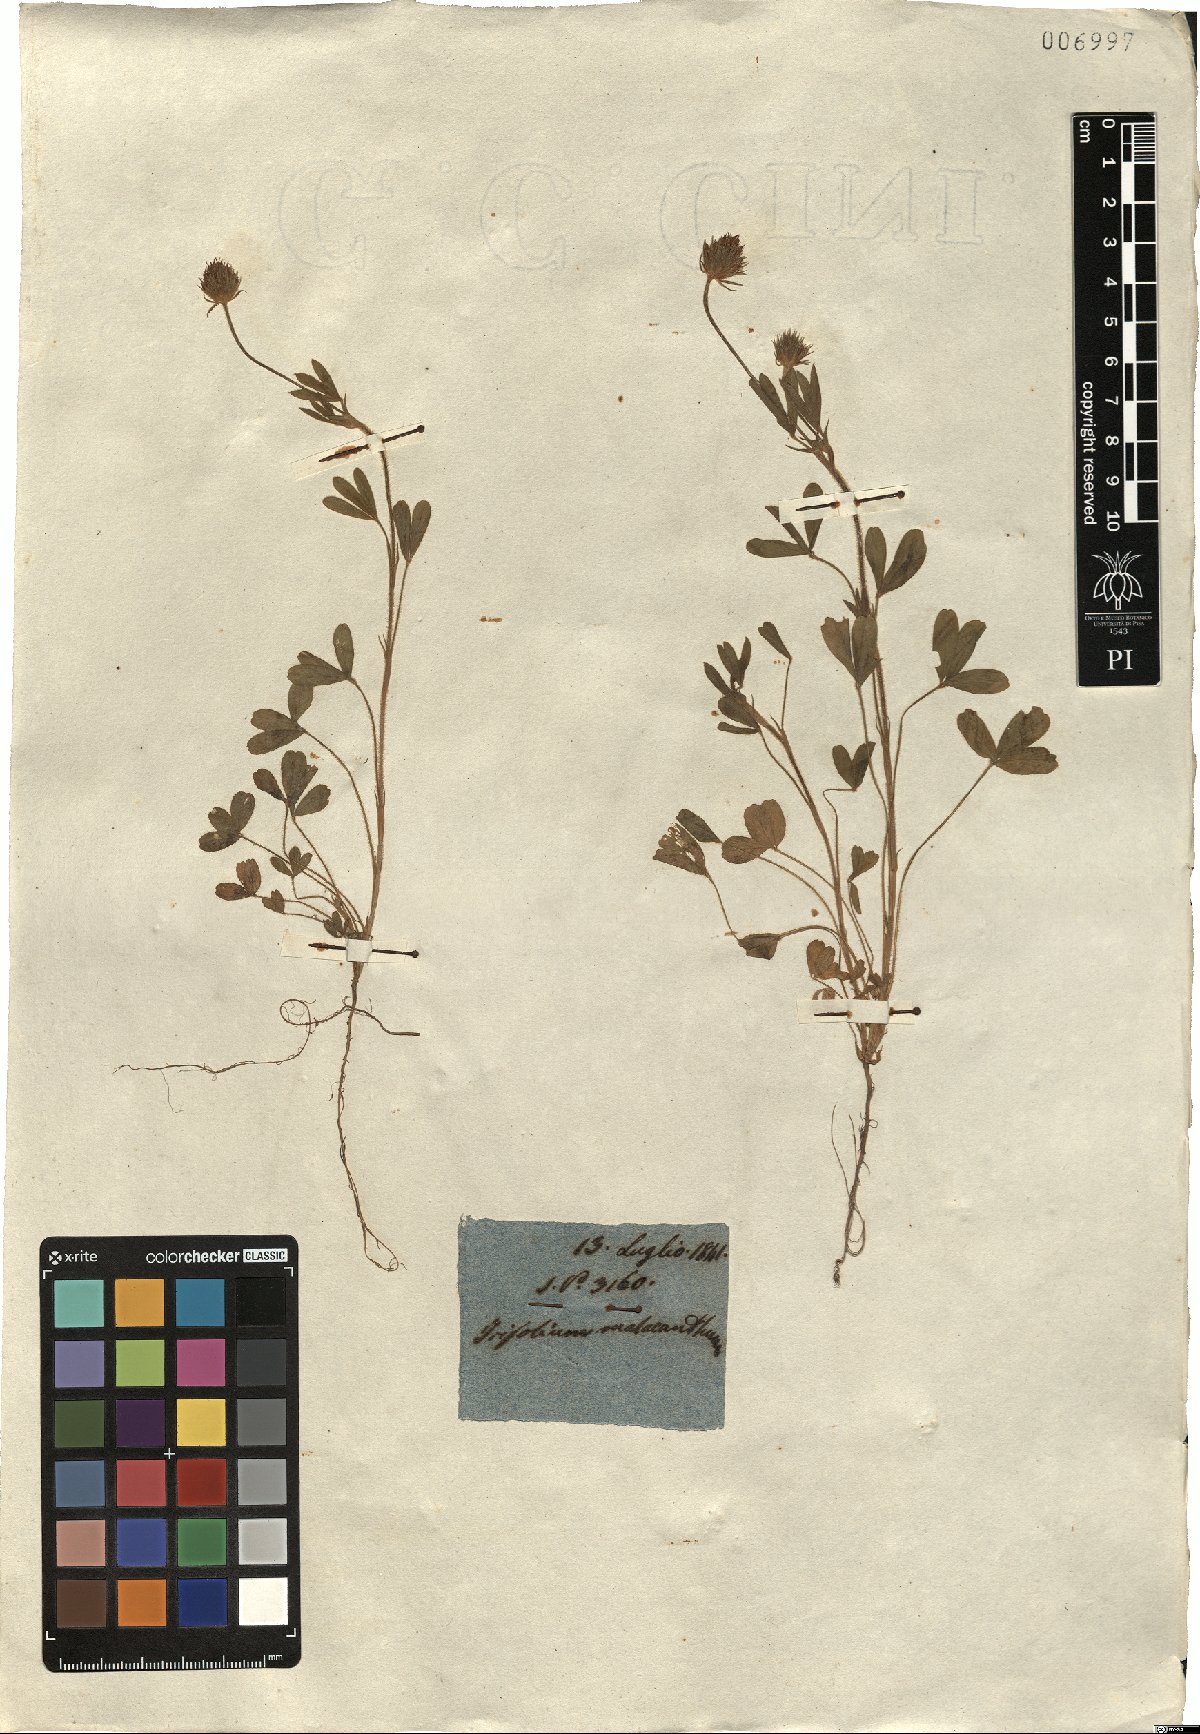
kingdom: Plantae
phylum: Tracheophyta
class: Magnoliopsida
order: Fabales
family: Fabaceae
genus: Trifolium
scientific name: Trifolium obscurum
